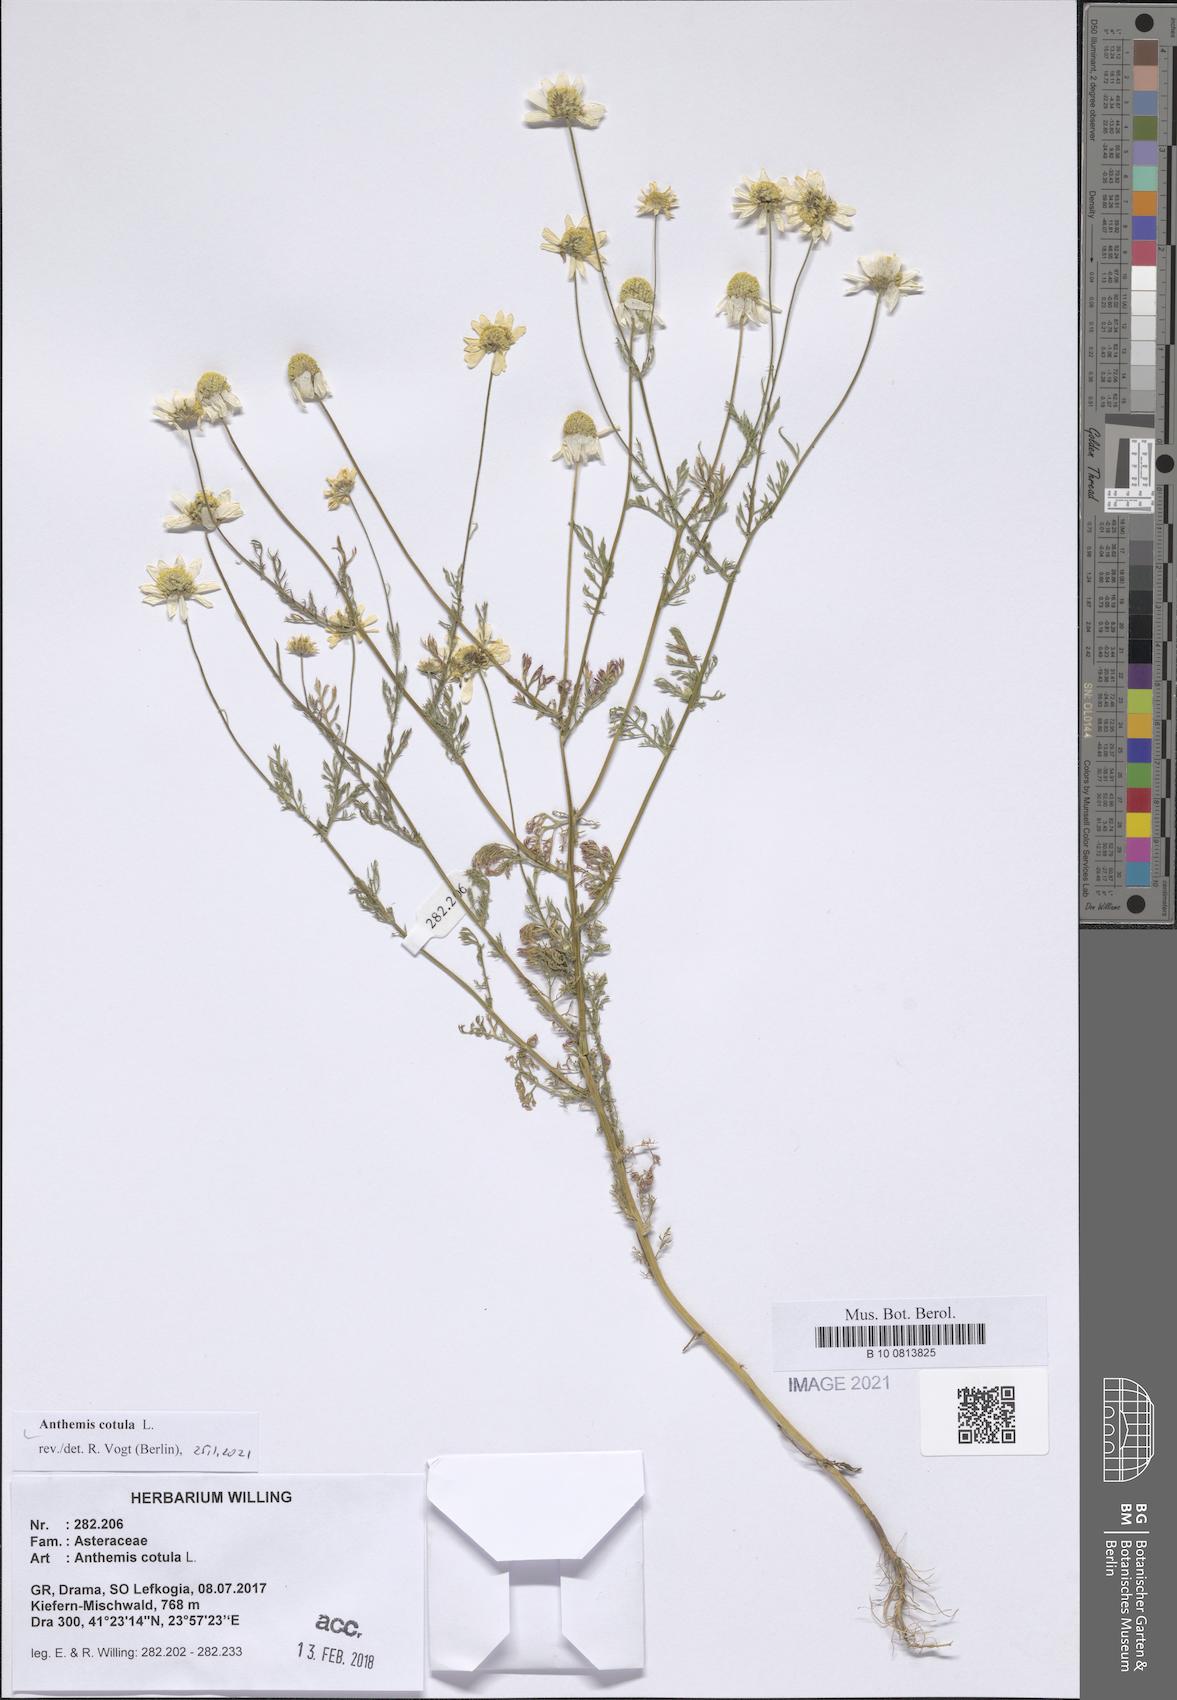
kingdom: Plantae
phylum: Tracheophyta
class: Magnoliopsida
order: Asterales
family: Asteraceae
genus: Anthemis
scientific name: Anthemis cotula
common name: Stinking chamomile
